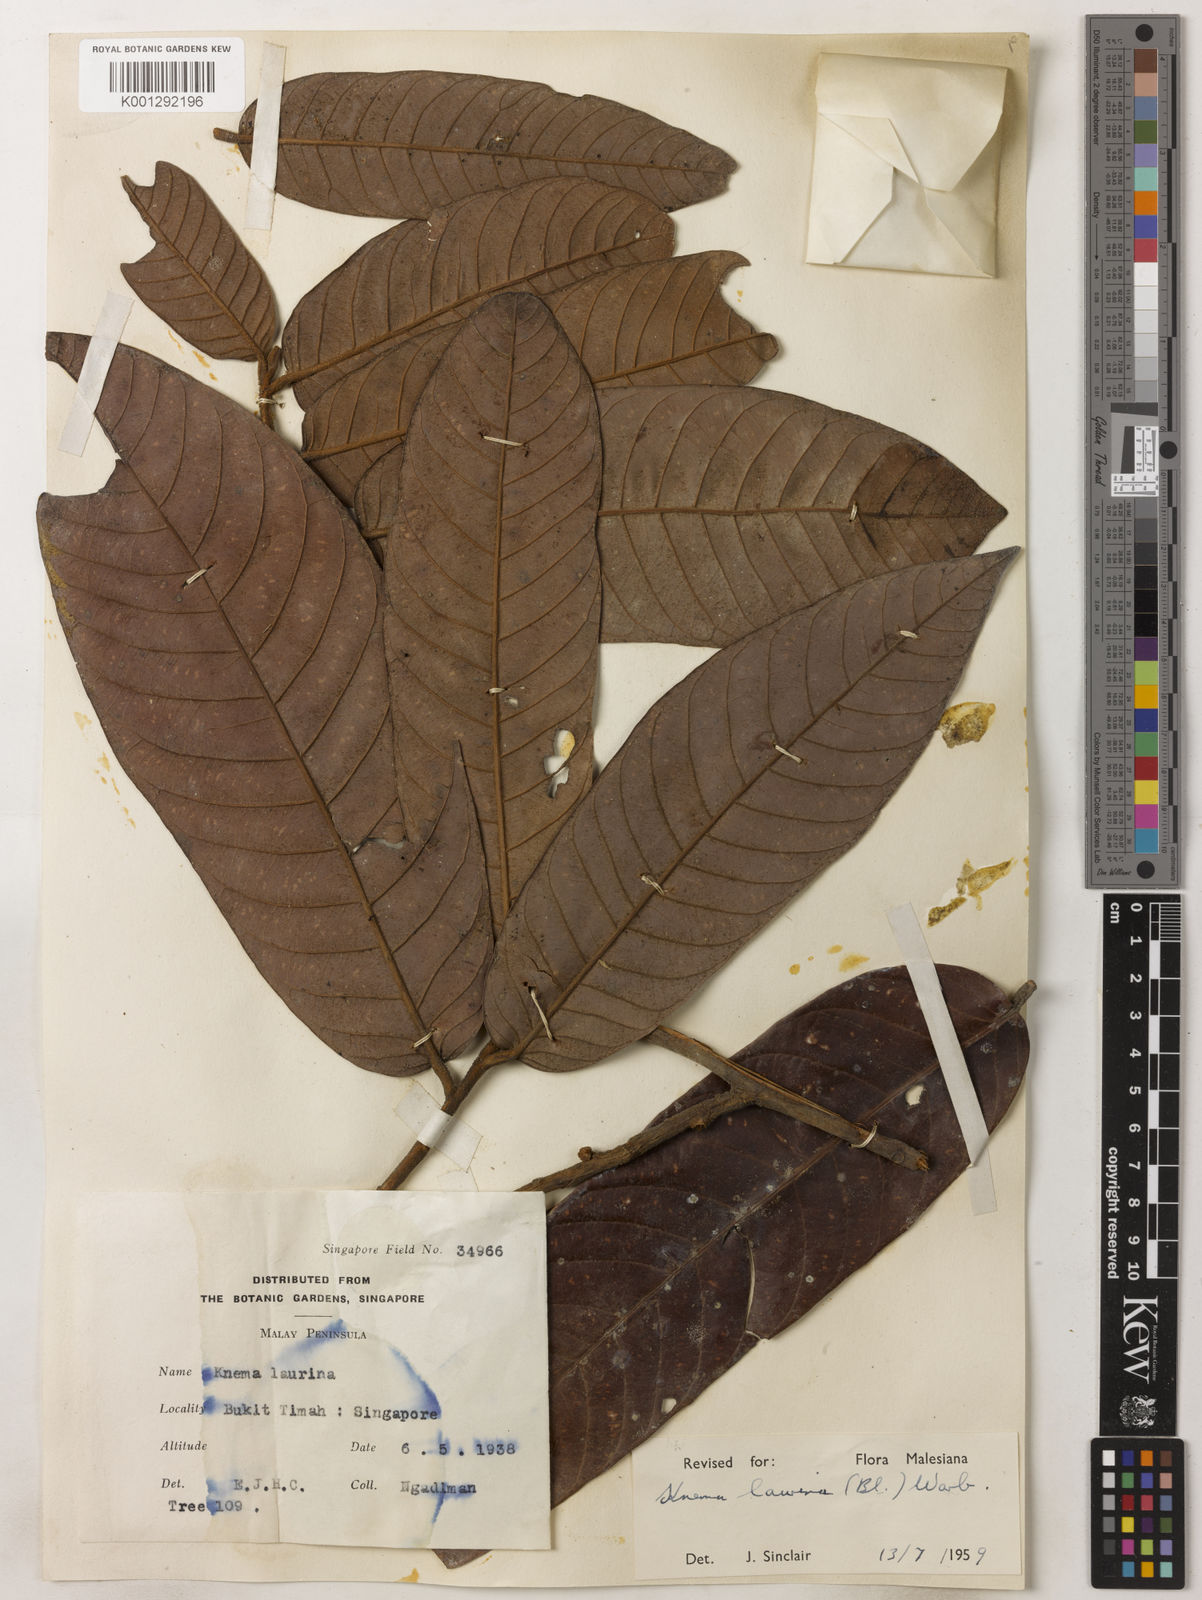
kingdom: Plantae
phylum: Tracheophyta
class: Magnoliopsida
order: Magnoliales
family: Myristicaceae
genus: Knema
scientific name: Knema laurina
